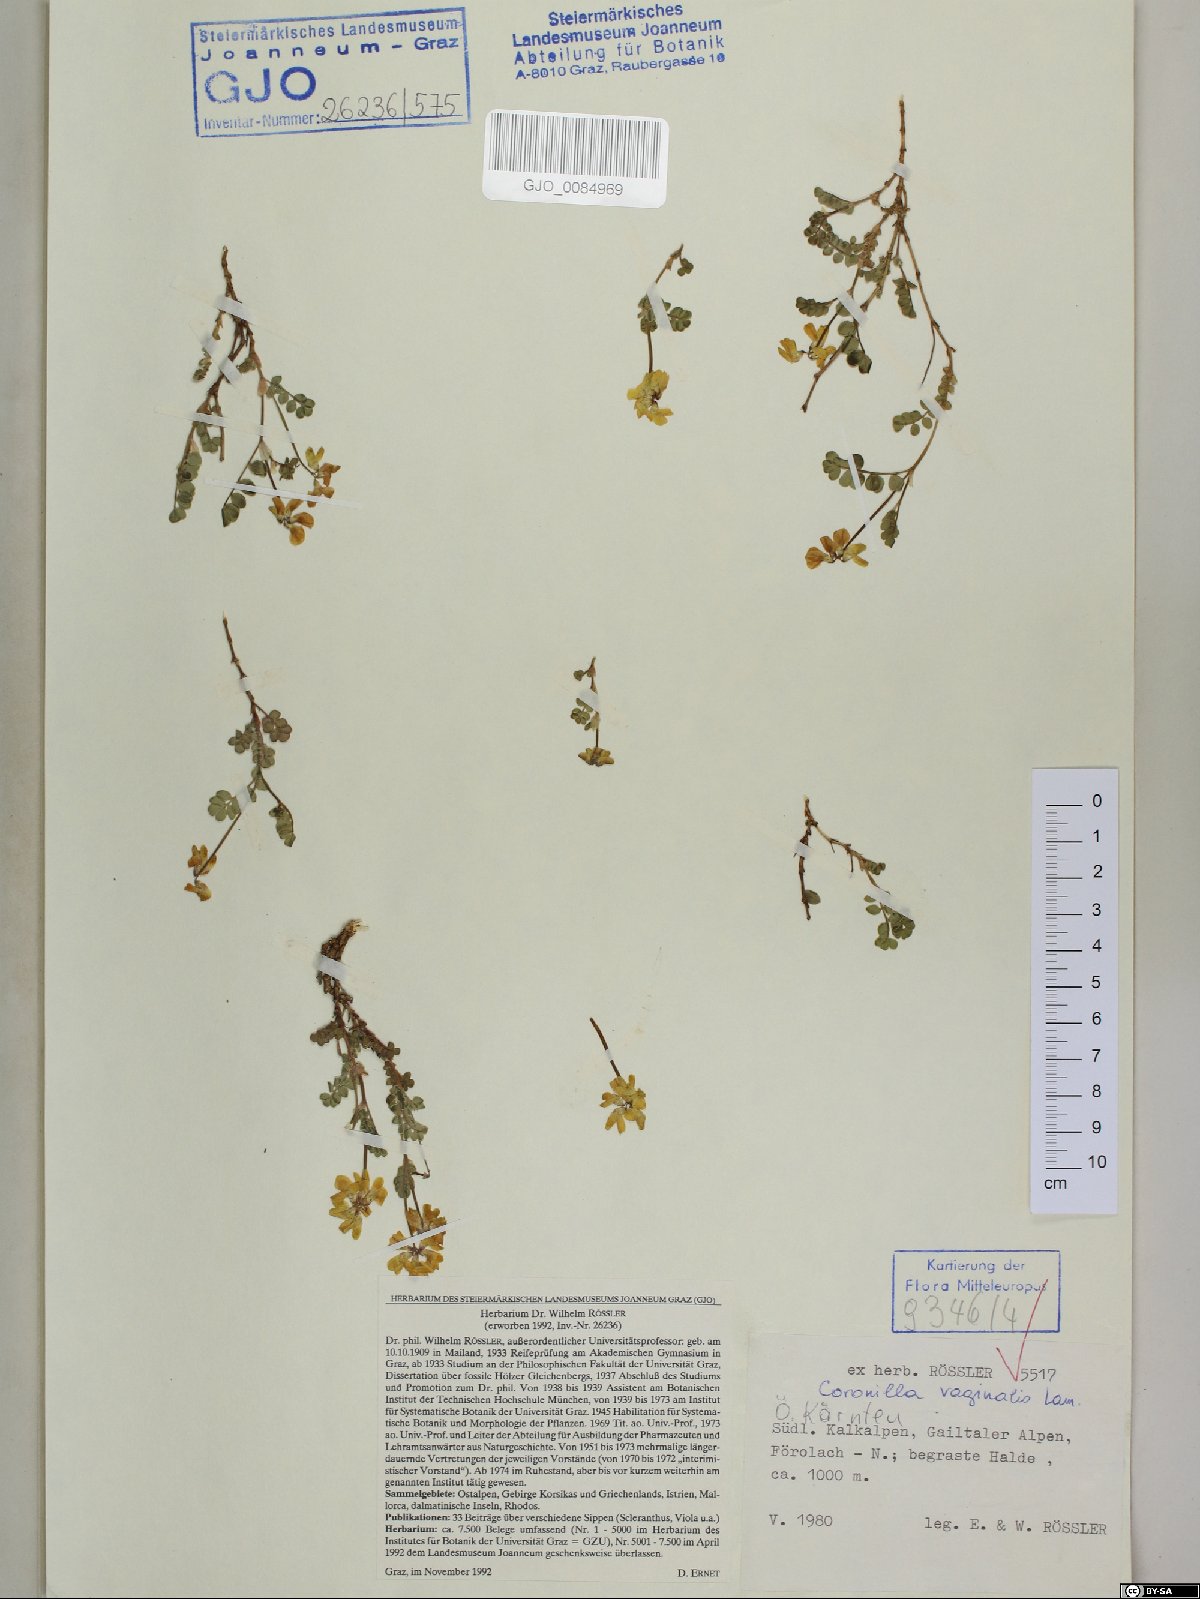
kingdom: Plantae
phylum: Tracheophyta
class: Magnoliopsida
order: Fabales
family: Fabaceae
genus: Coronilla
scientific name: Coronilla vaginalis
